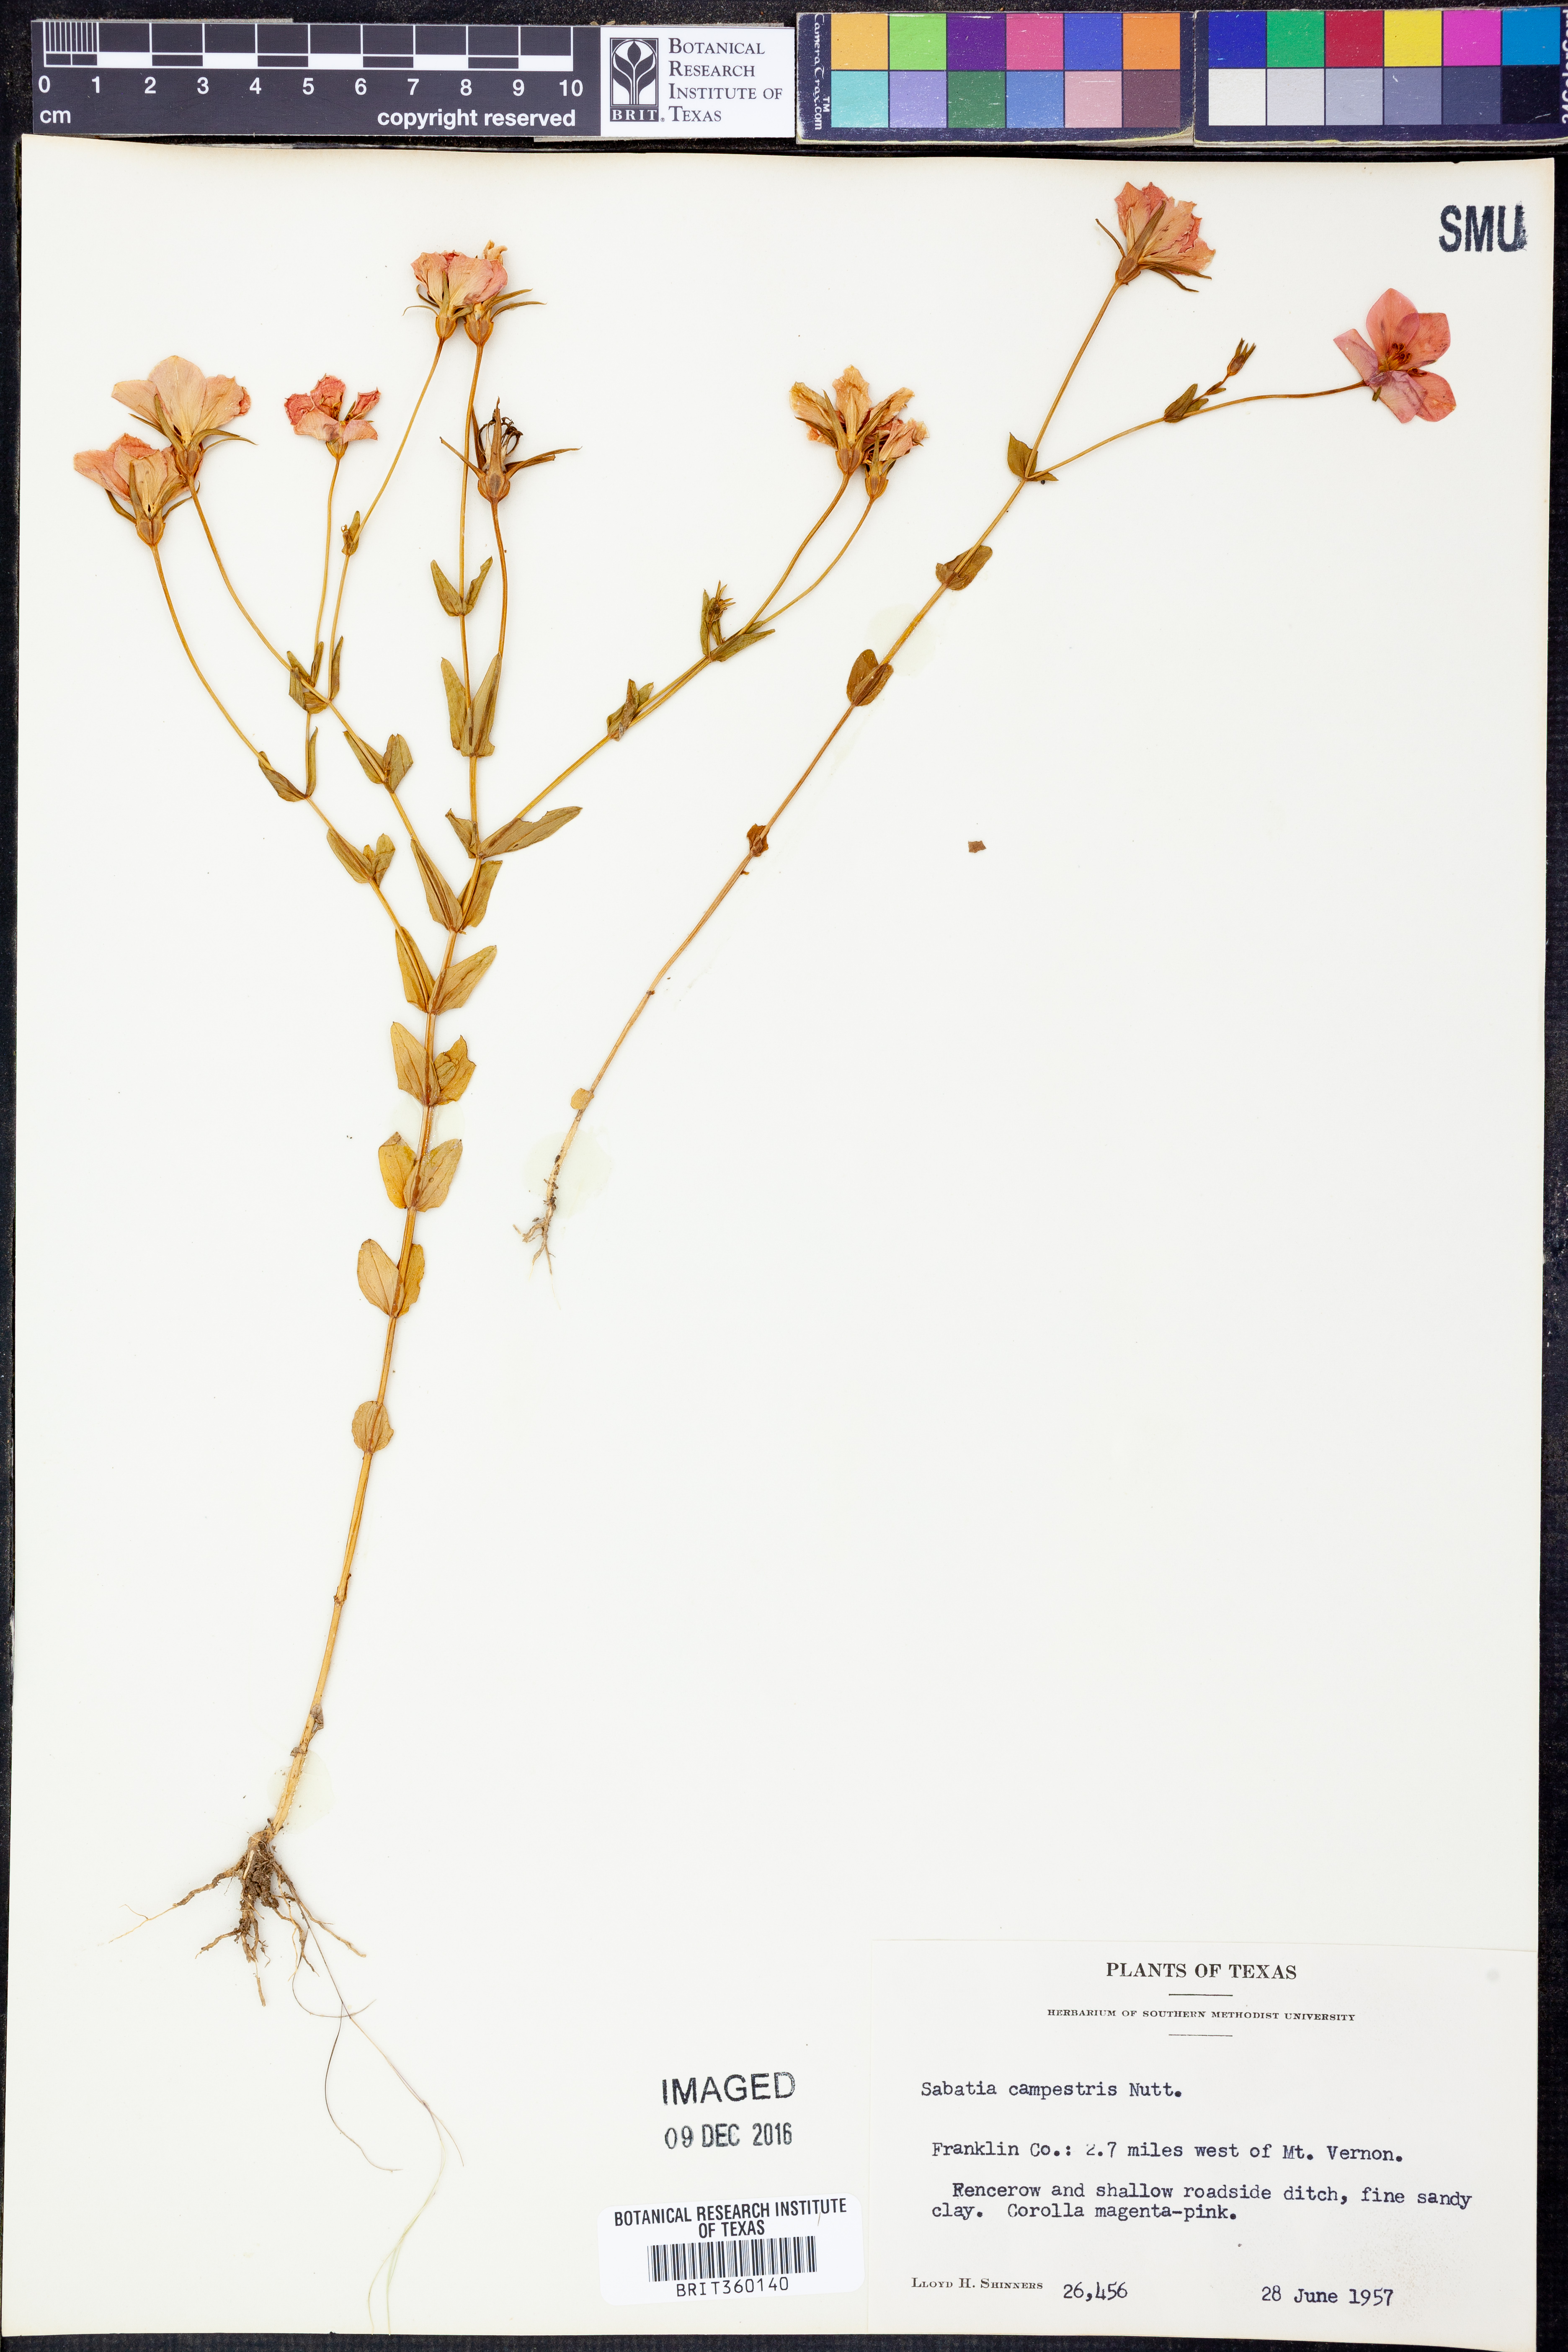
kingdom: Plantae
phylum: Tracheophyta
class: Magnoliopsida
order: Gentianales
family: Gentianaceae
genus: Sabatia
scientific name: Sabatia campestris
